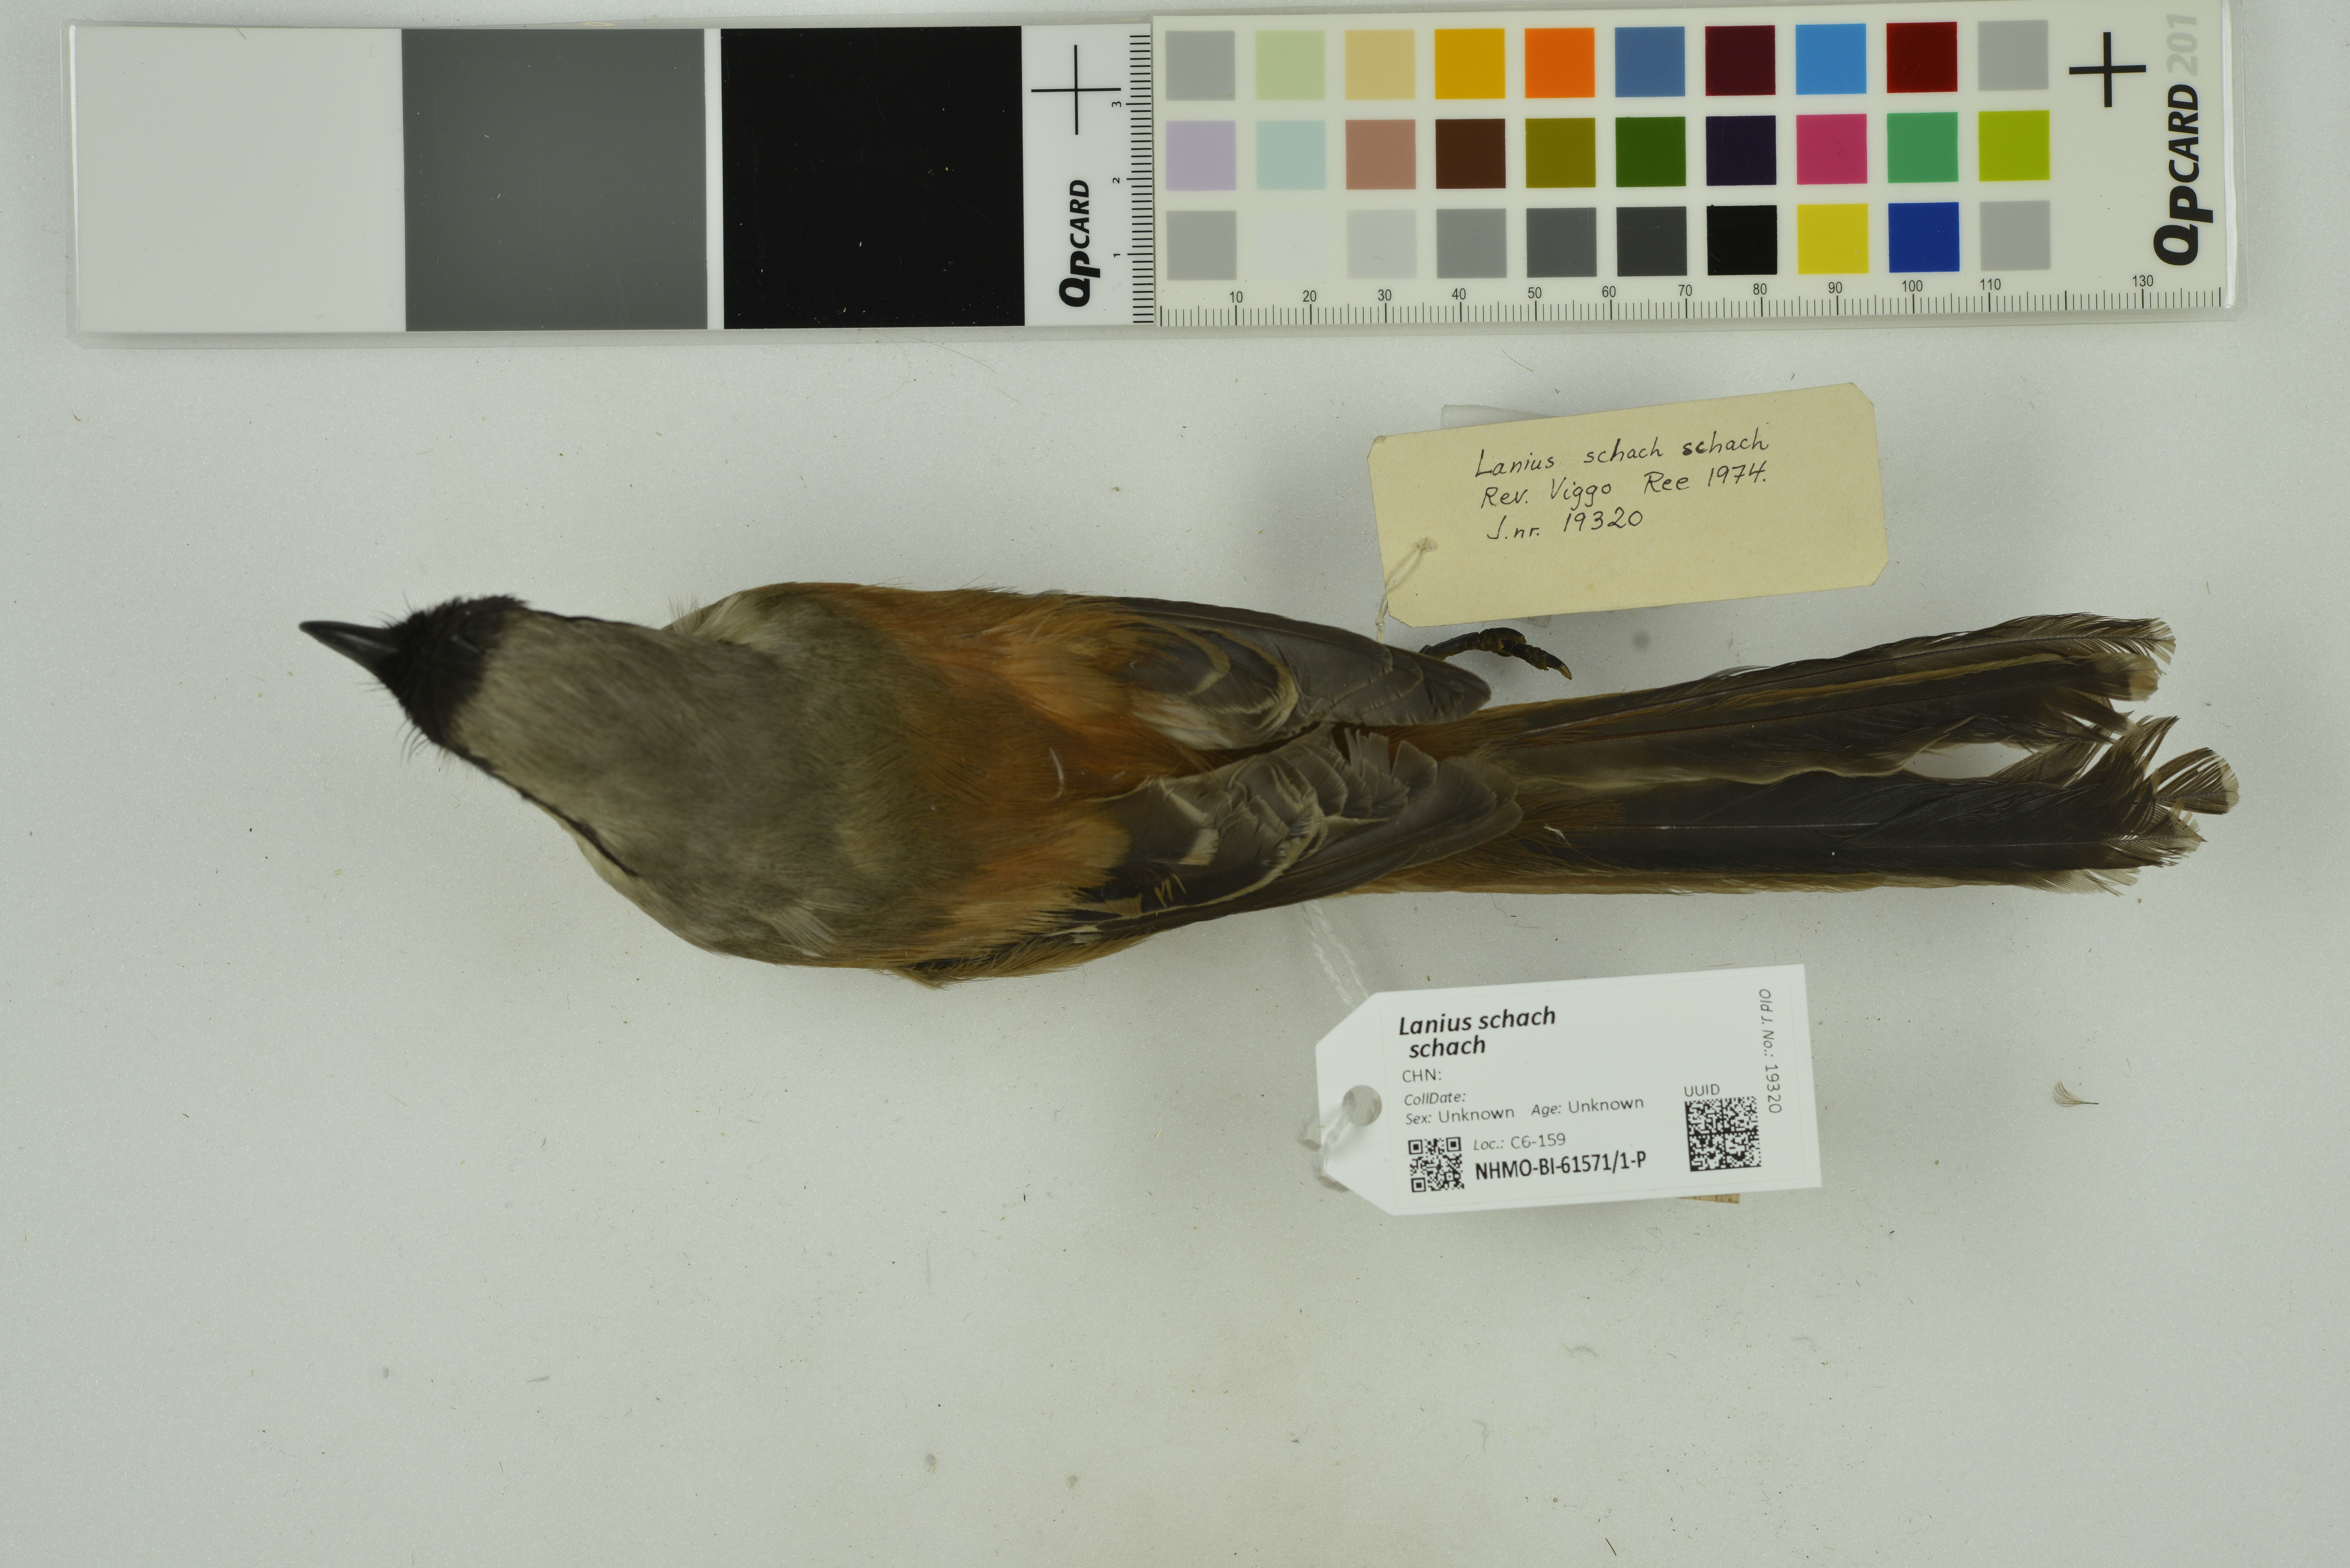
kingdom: Animalia
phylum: Chordata
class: Aves
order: Passeriformes
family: Laniidae
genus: Lanius
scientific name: Lanius schach
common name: Long-tailed shrike
